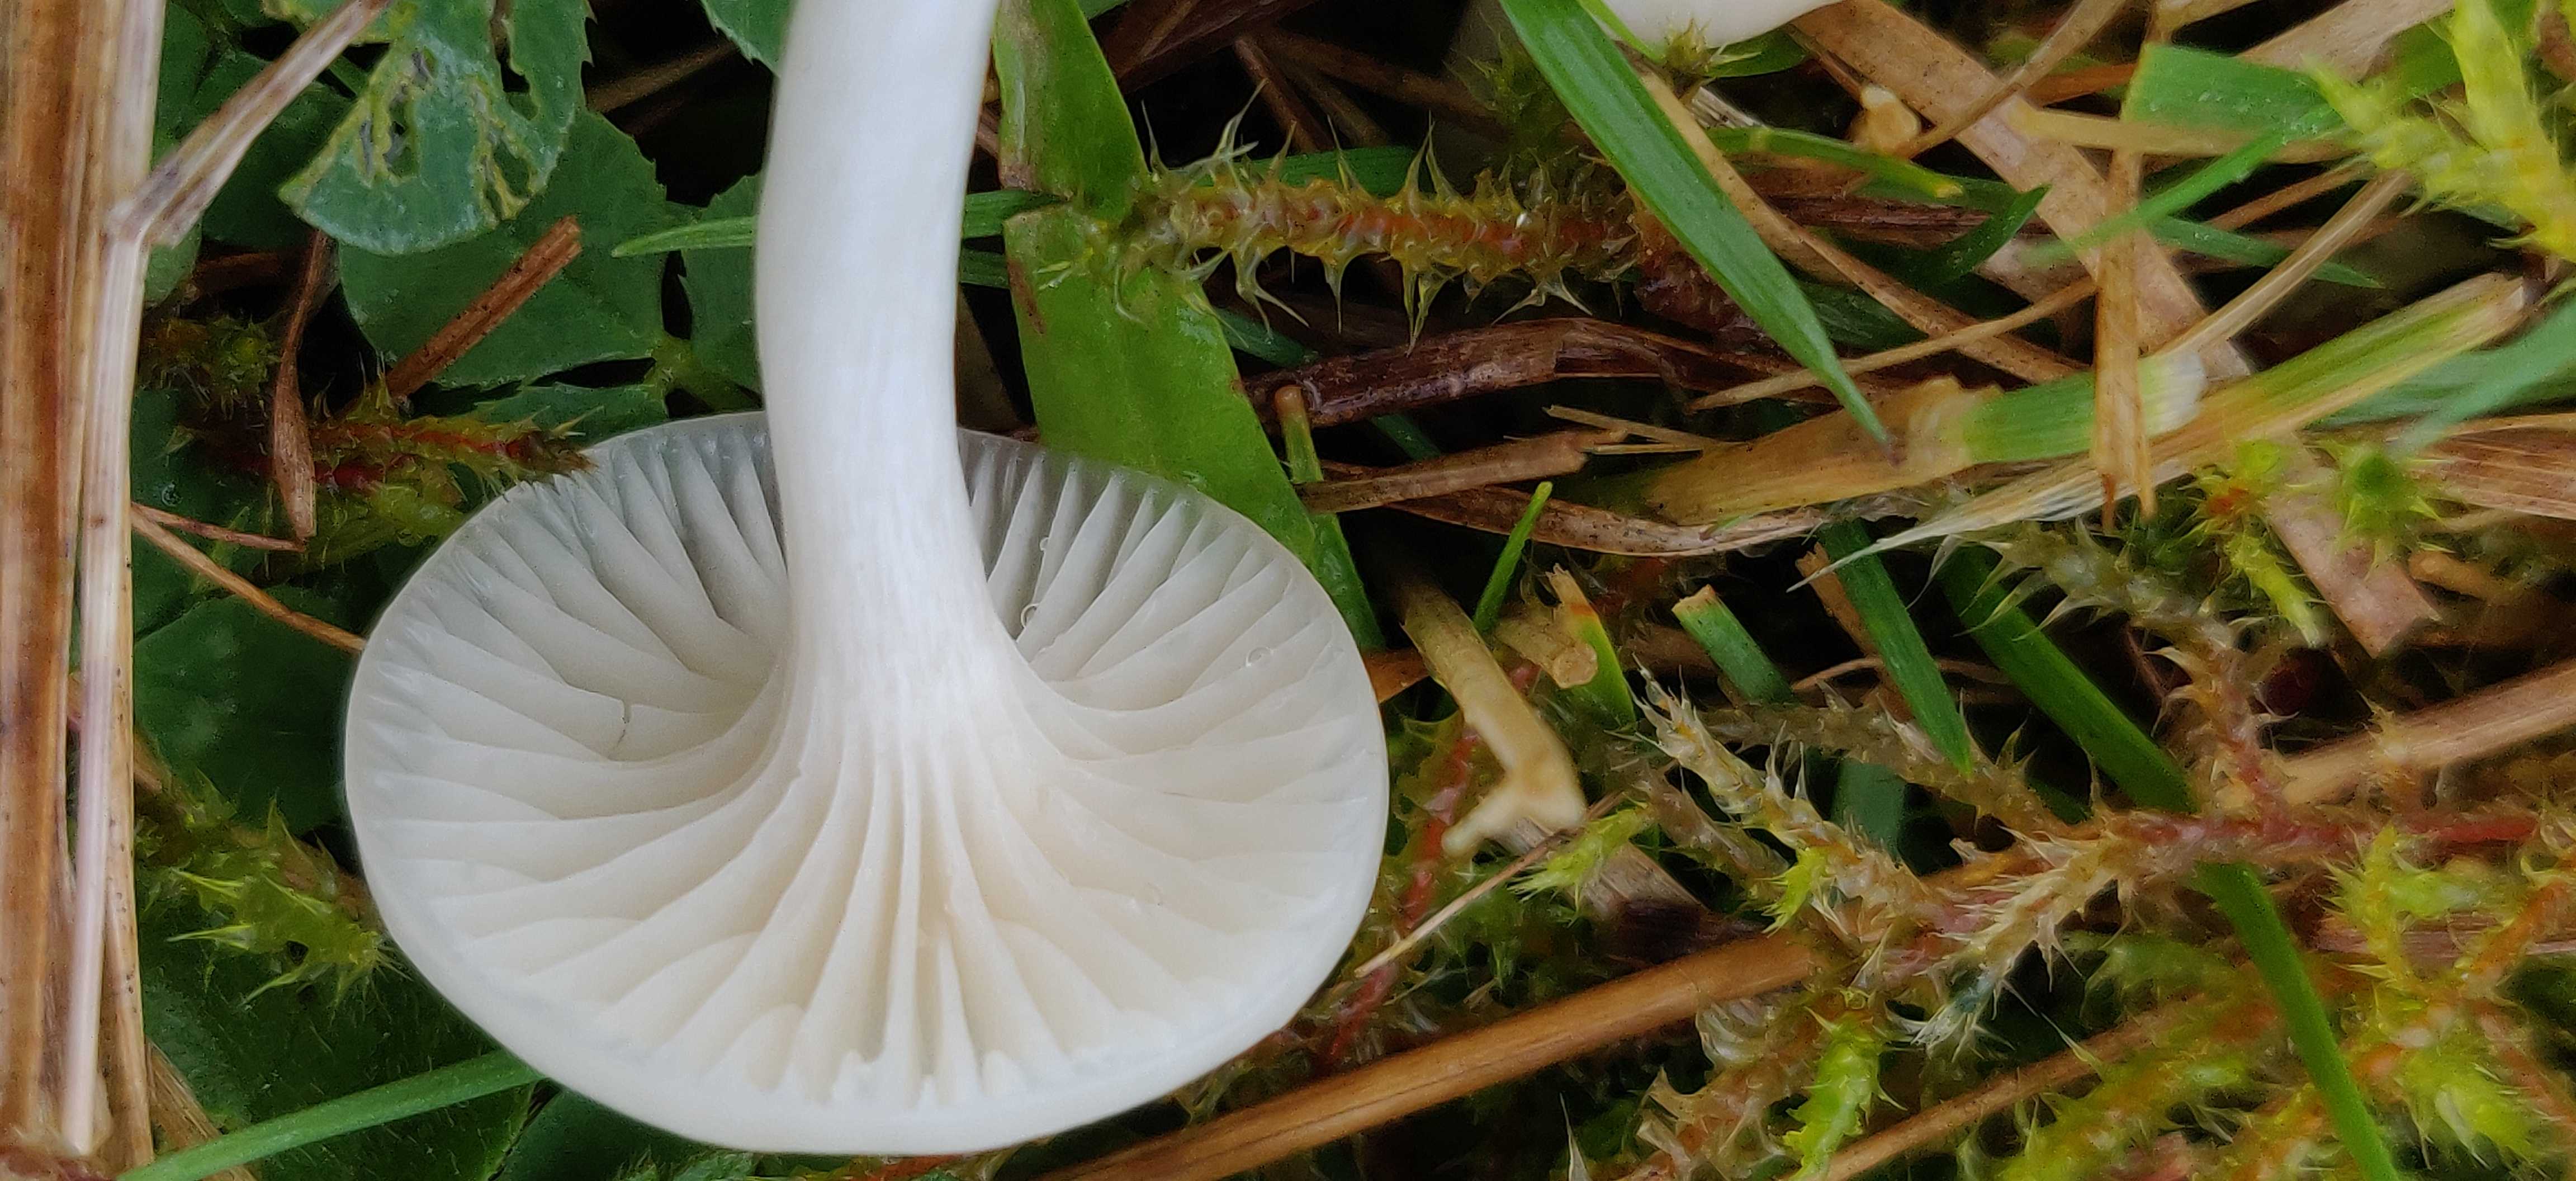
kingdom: Fungi
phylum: Basidiomycota
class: Agaricomycetes
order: Agaricales
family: Hygrophoraceae
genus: Cuphophyllus
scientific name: Cuphophyllus virgineus
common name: snehvid vokshat
